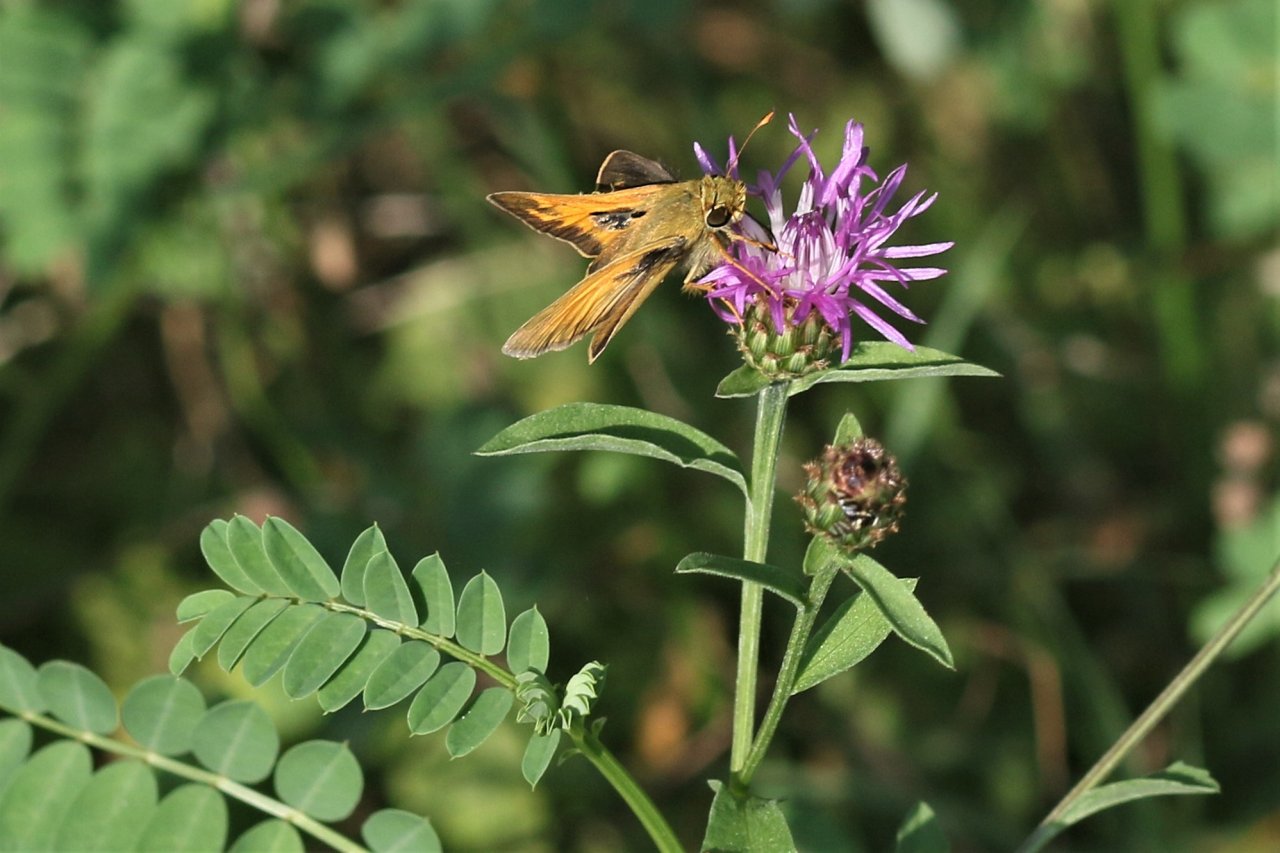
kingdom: Animalia
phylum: Arthropoda
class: Insecta
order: Lepidoptera
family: Hesperiidae
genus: Atalopedes
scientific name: Atalopedes campestris
